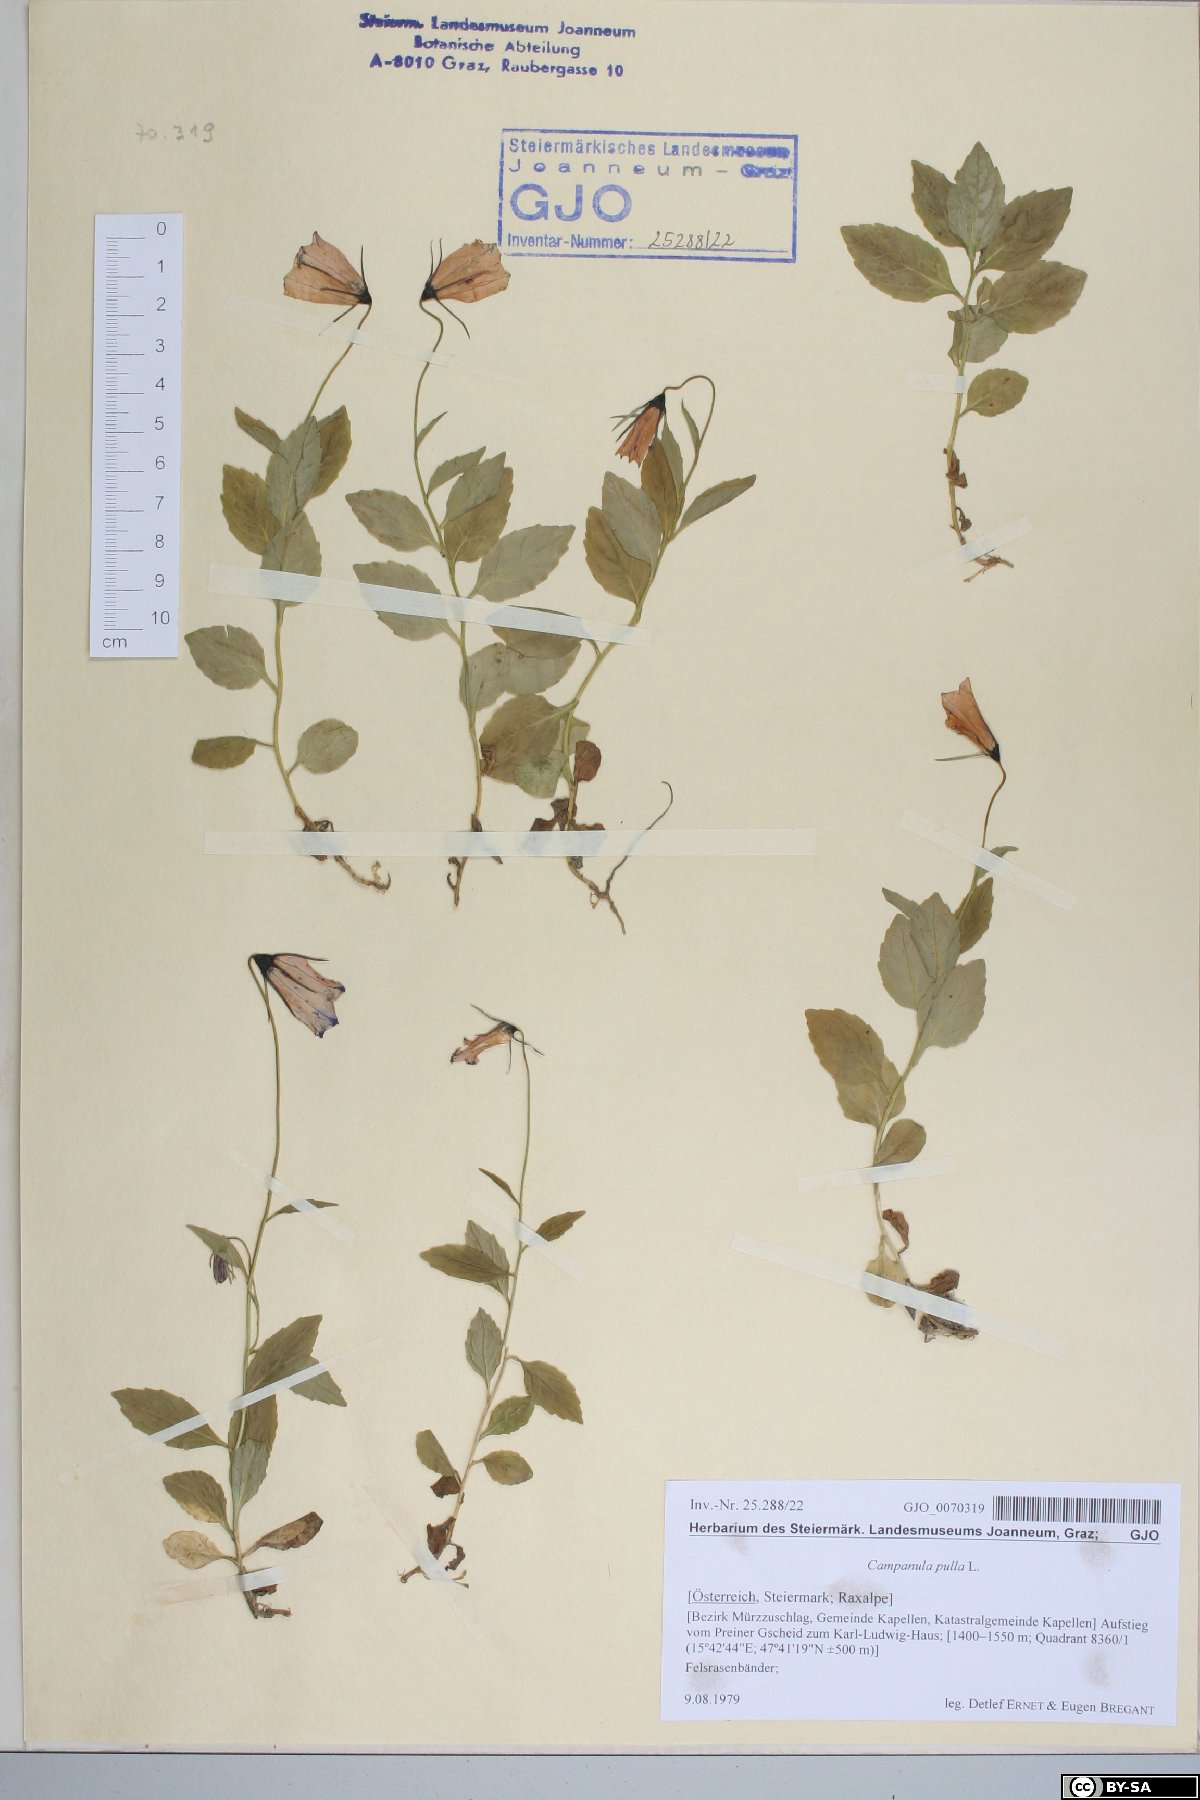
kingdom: Plantae
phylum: Tracheophyta
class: Magnoliopsida
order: Asterales
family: Campanulaceae
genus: Campanula
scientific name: Campanula pulla
